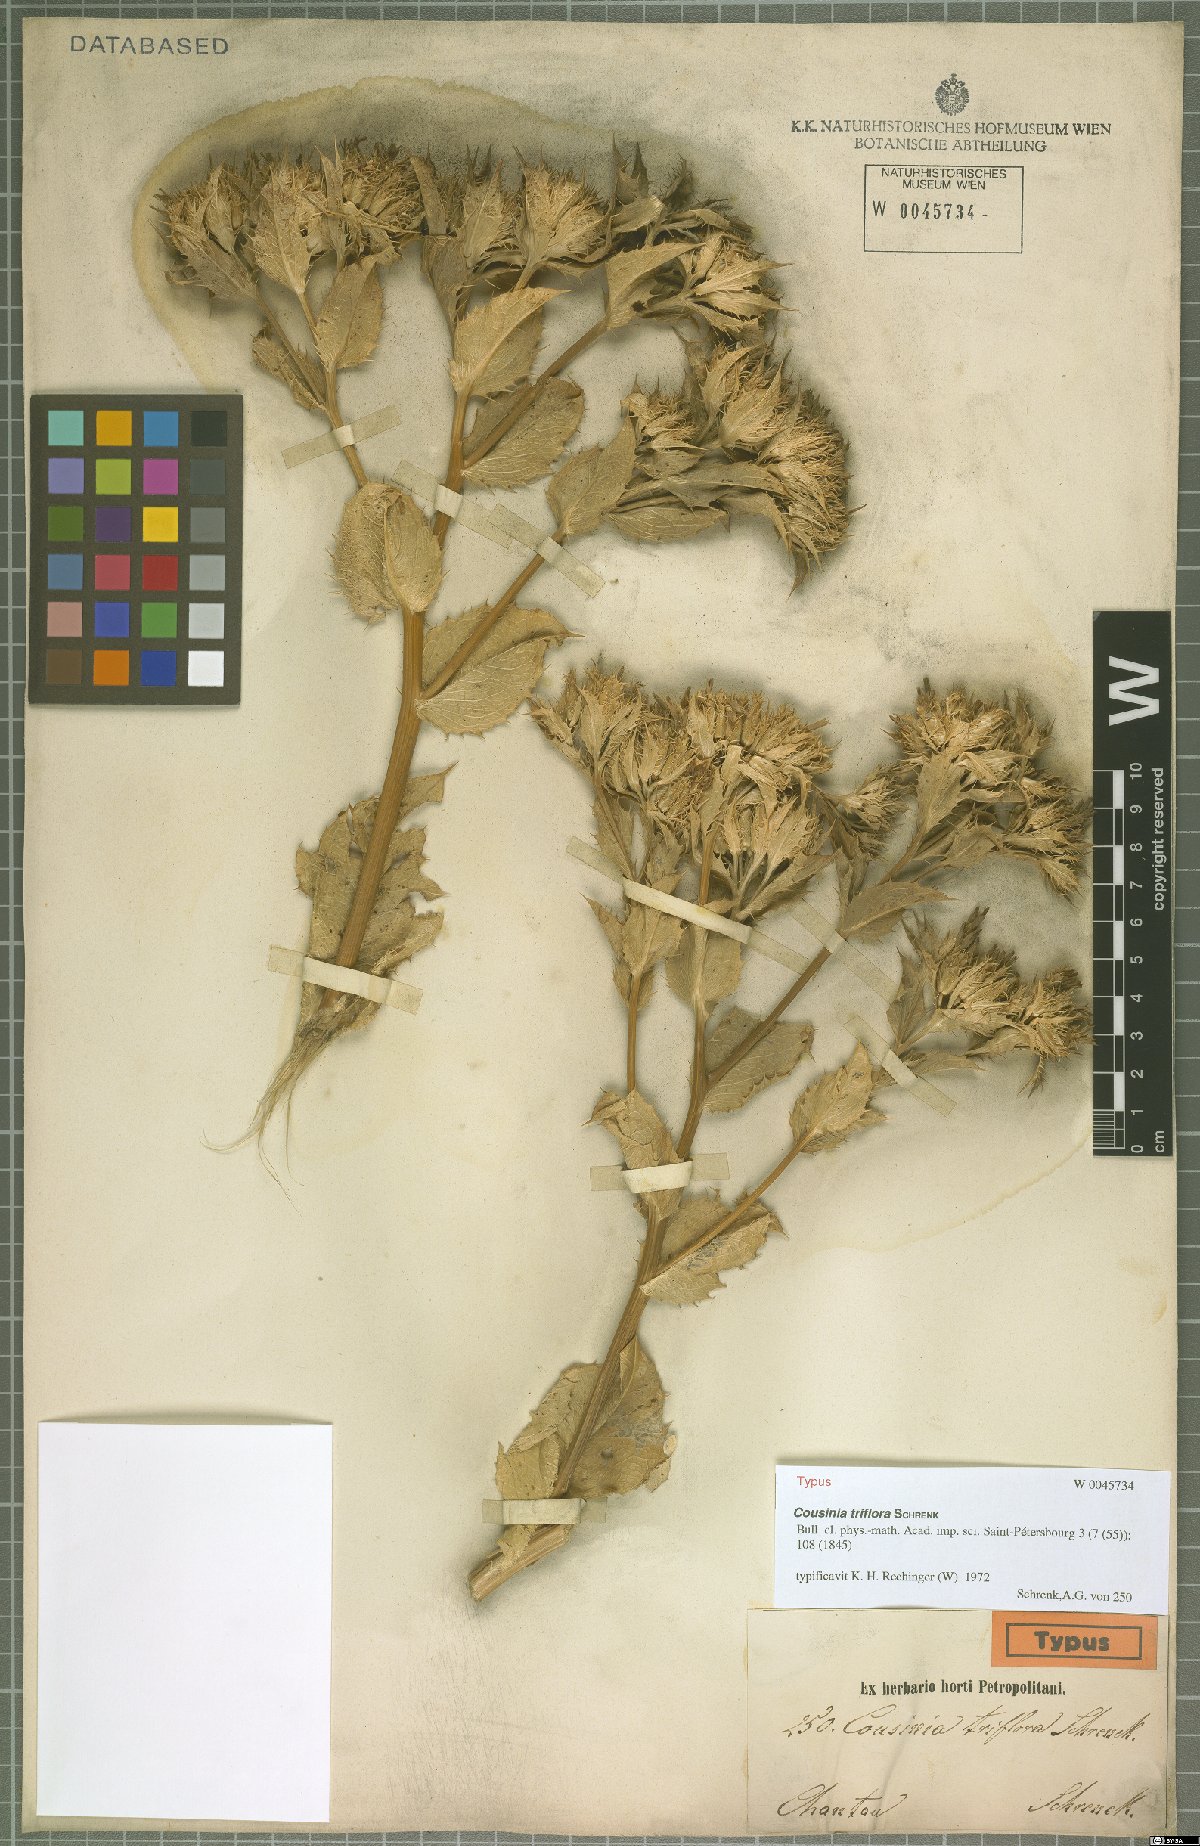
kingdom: Plantae
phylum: Tracheophyta
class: Magnoliopsida
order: Asterales
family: Asteraceae
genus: Arctium
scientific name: Arctium triflorum
